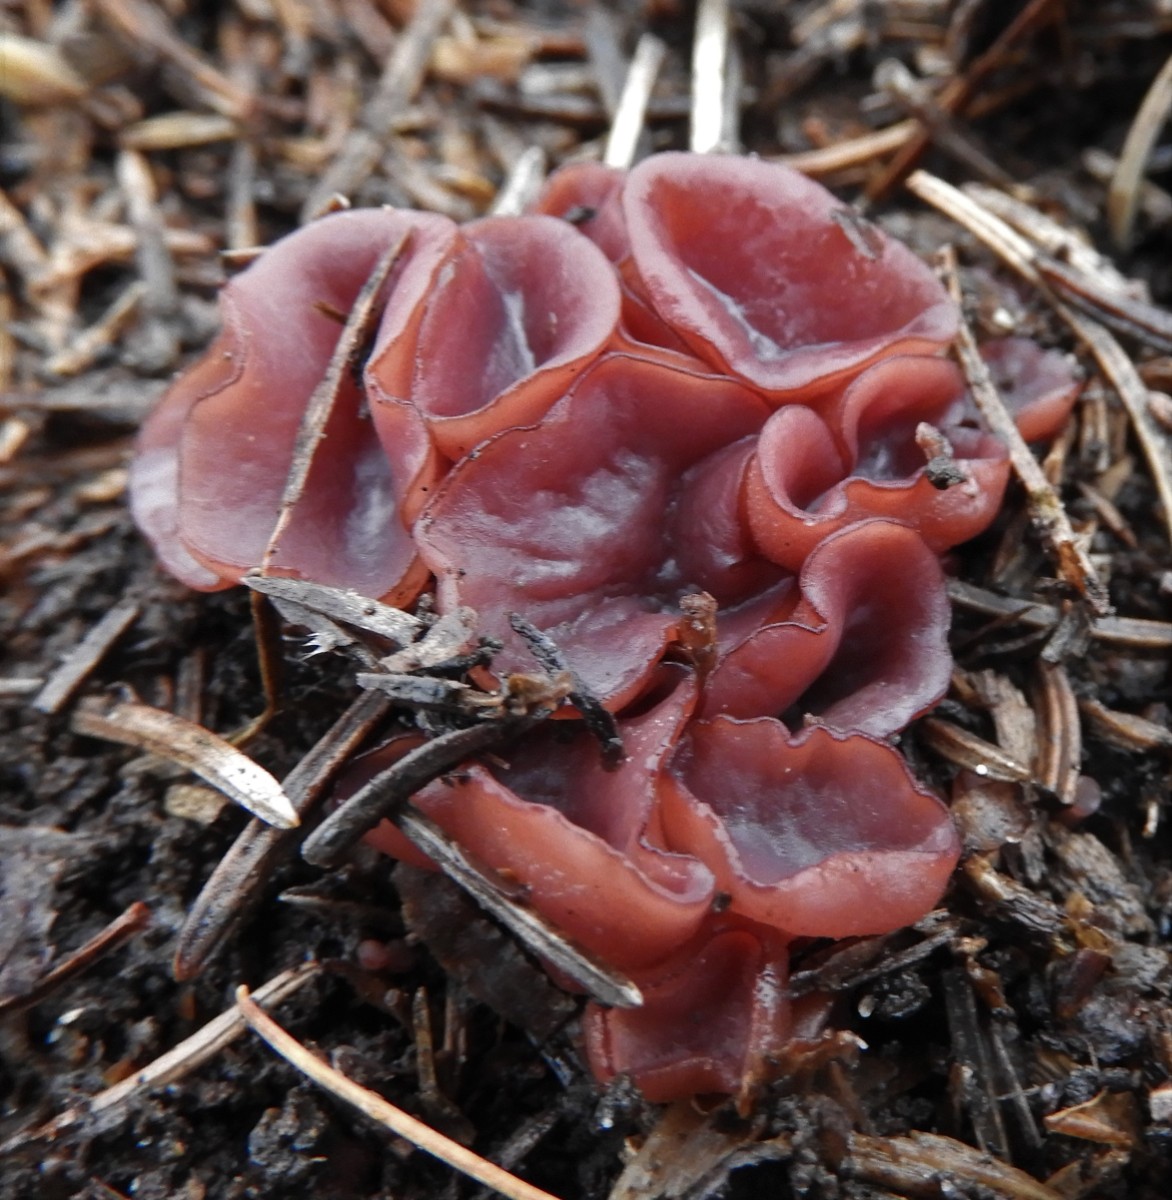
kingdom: Fungi
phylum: Ascomycota
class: Leotiomycetes
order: Helotiales
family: Gelatinodiscaceae
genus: Ascocoryne
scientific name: Ascocoryne cylichnium
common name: stor sejskive
